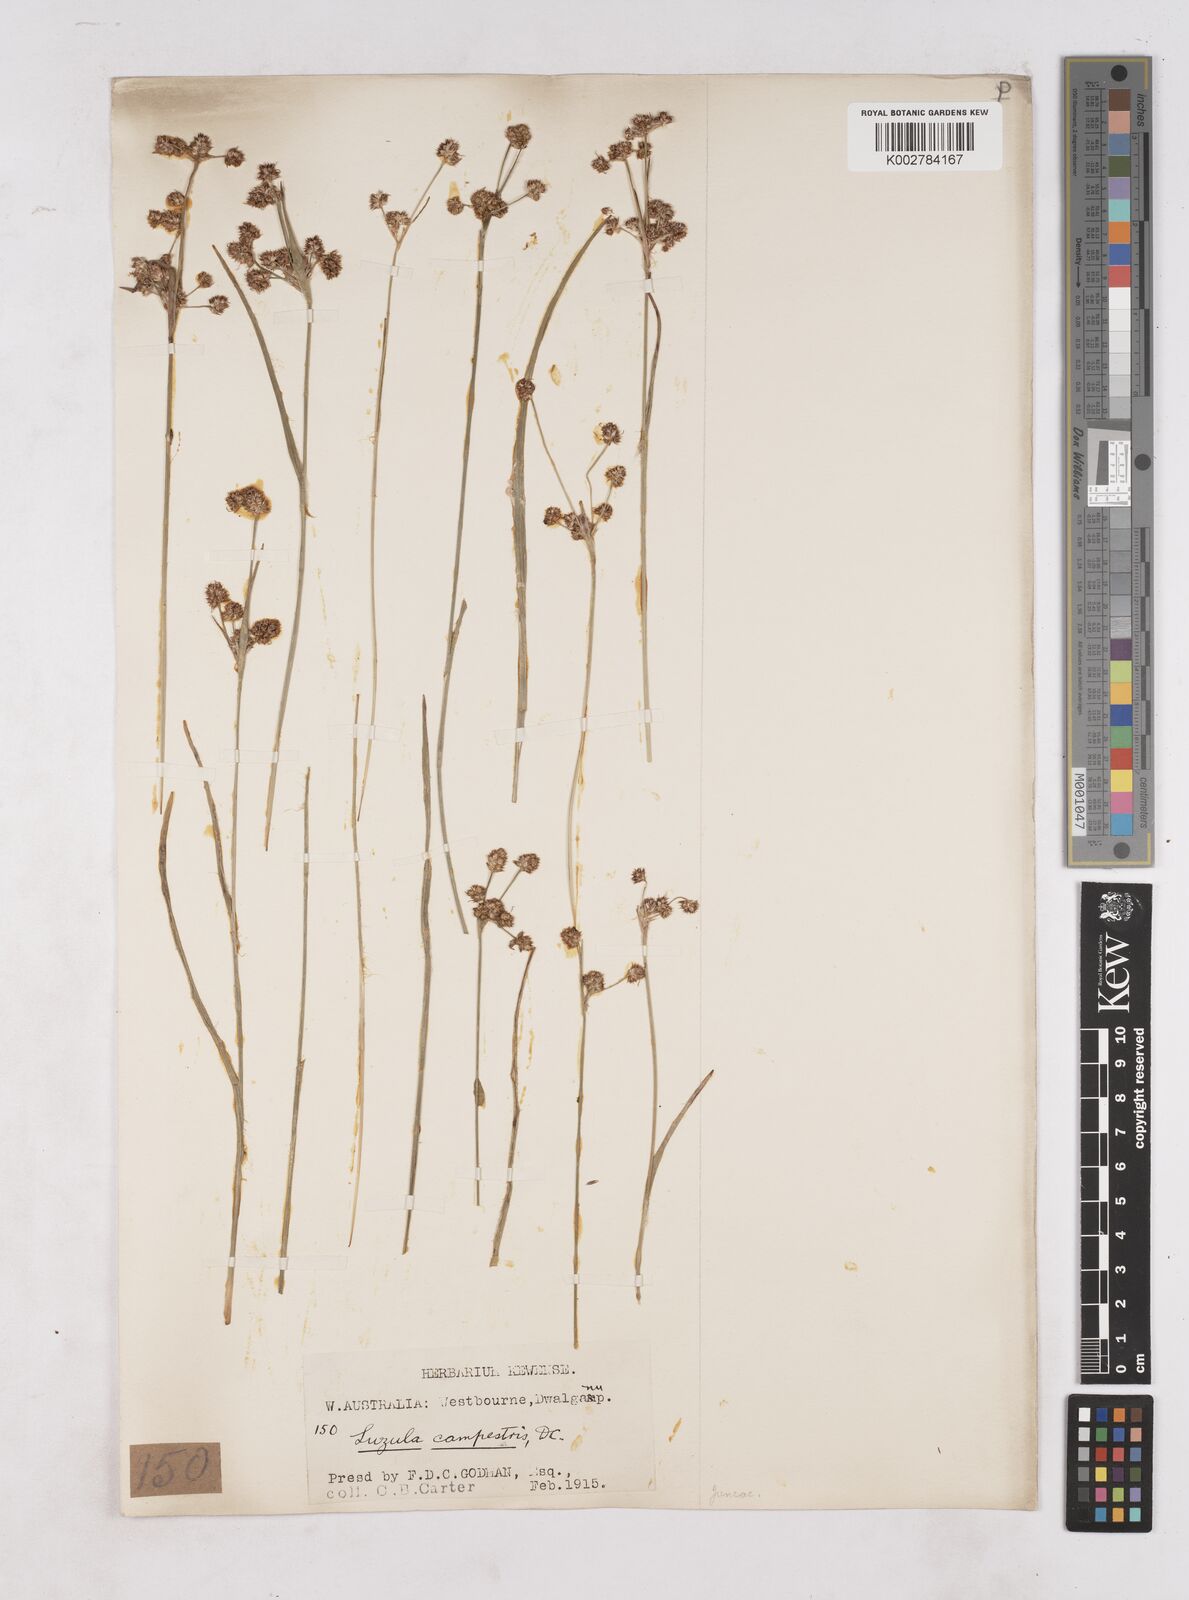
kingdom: Plantae
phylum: Tracheophyta
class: Liliopsida
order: Poales
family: Juncaceae
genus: Luzula
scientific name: Luzula campestris
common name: Field wood-rush
